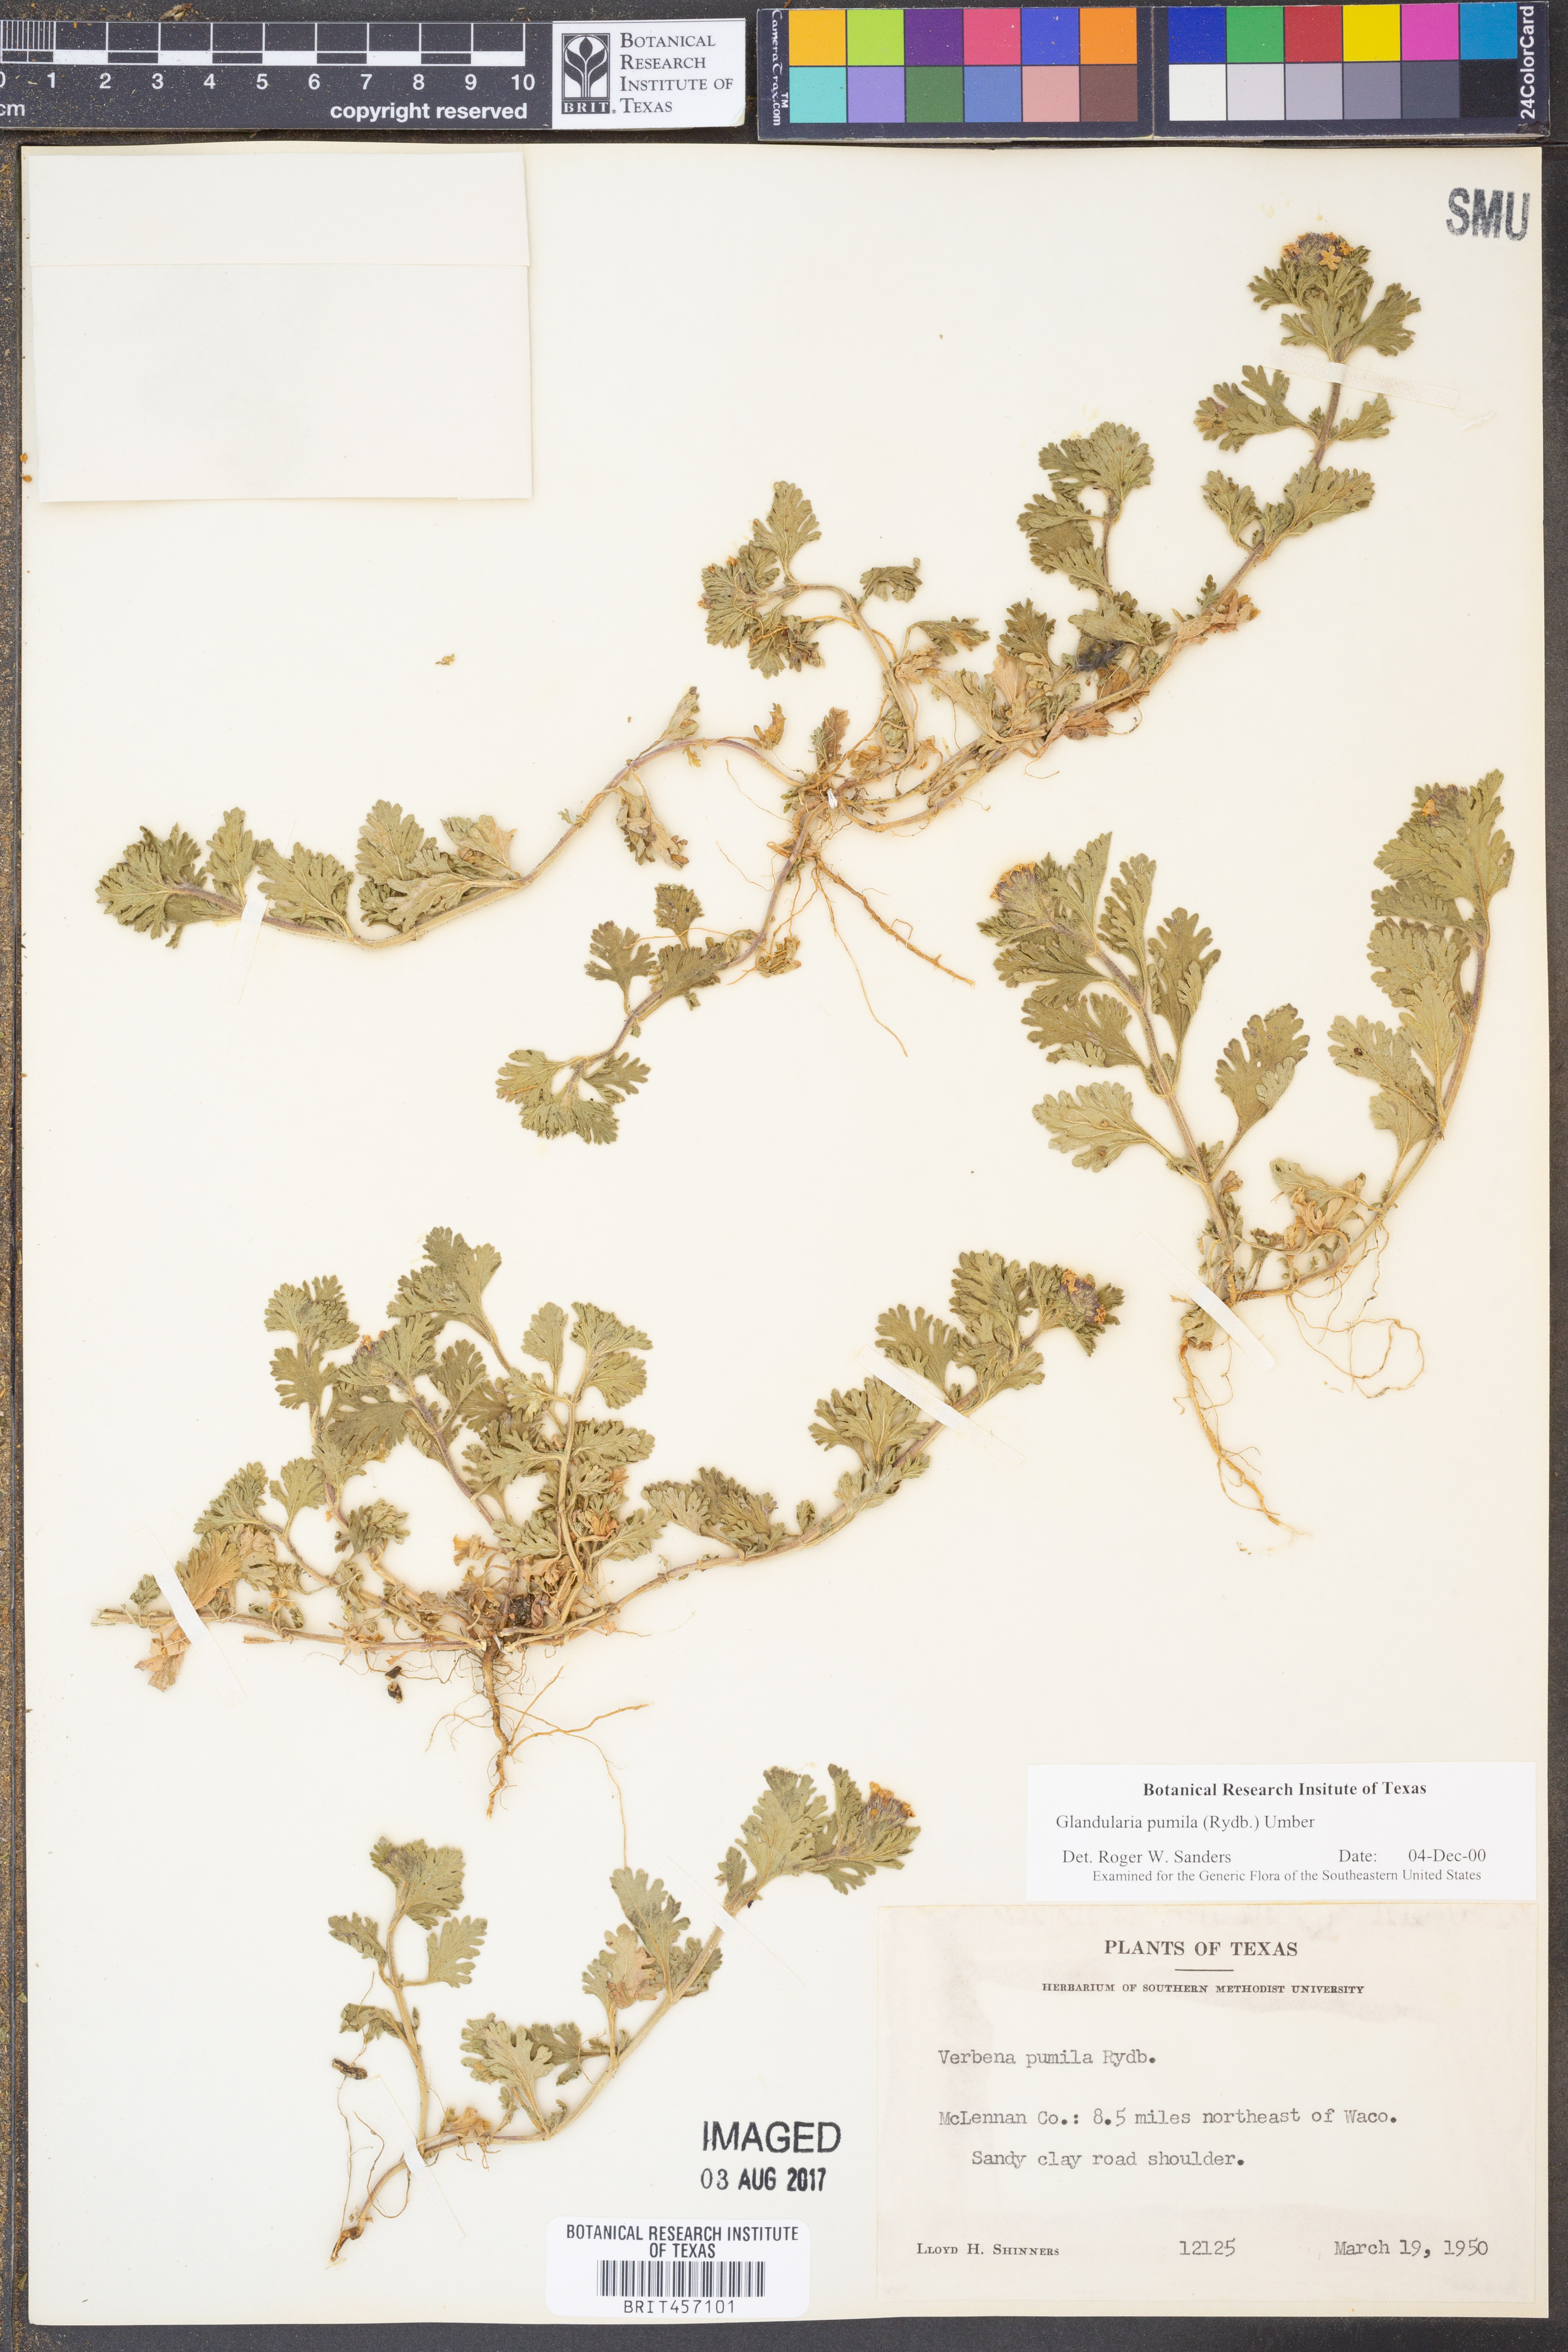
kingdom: Plantae
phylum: Tracheophyta
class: Magnoliopsida
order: Lamiales
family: Verbenaceae
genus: Verbena
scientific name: Verbena pumila
